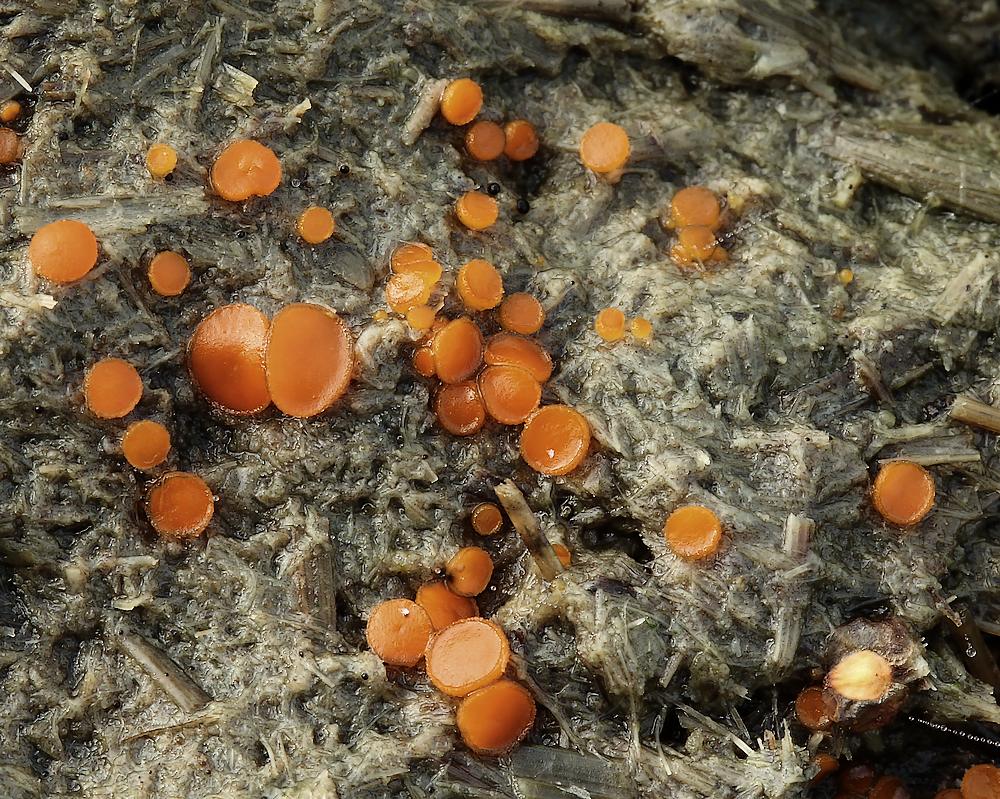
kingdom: Fungi
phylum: Ascomycota
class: Pezizomycetes
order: Pezizales
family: Pyronemataceae
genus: Cheilymenia
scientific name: Cheilymenia granulata
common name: møgbæger
